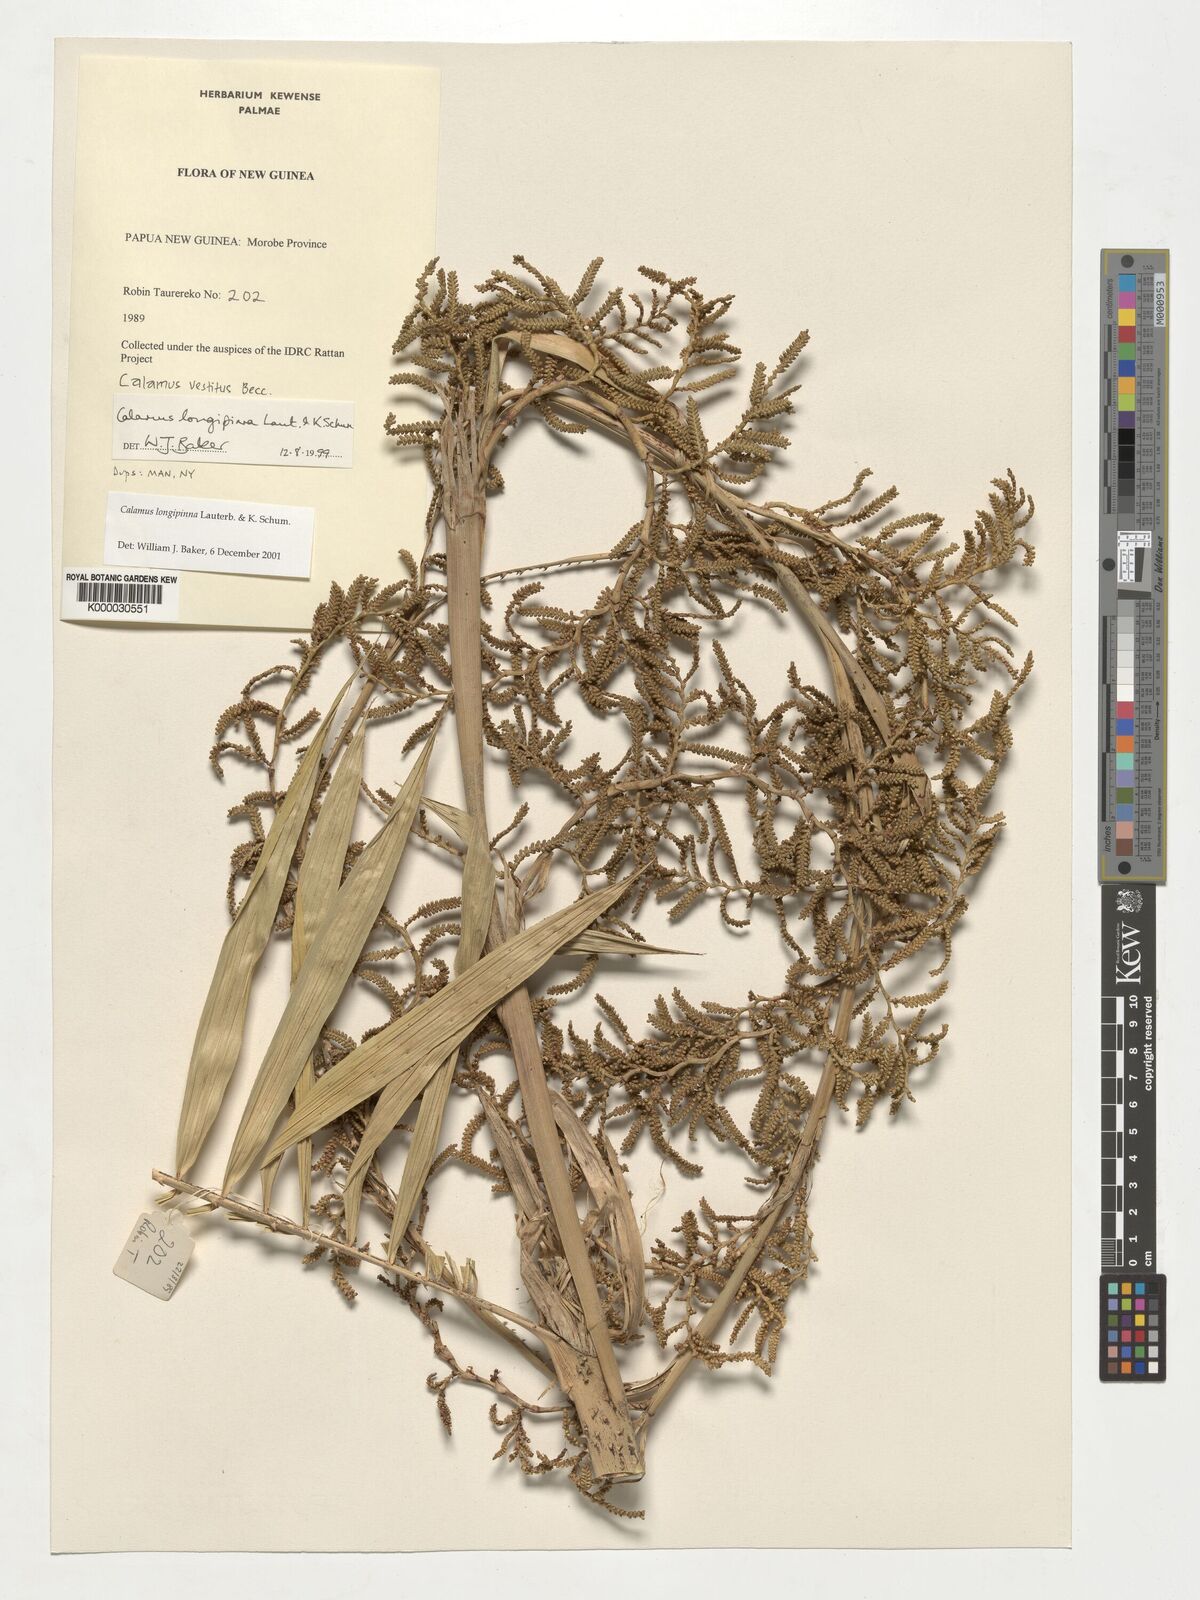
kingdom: Plantae
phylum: Tracheophyta
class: Liliopsida
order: Arecales
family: Arecaceae
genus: Calamus
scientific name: Calamus longipinna
